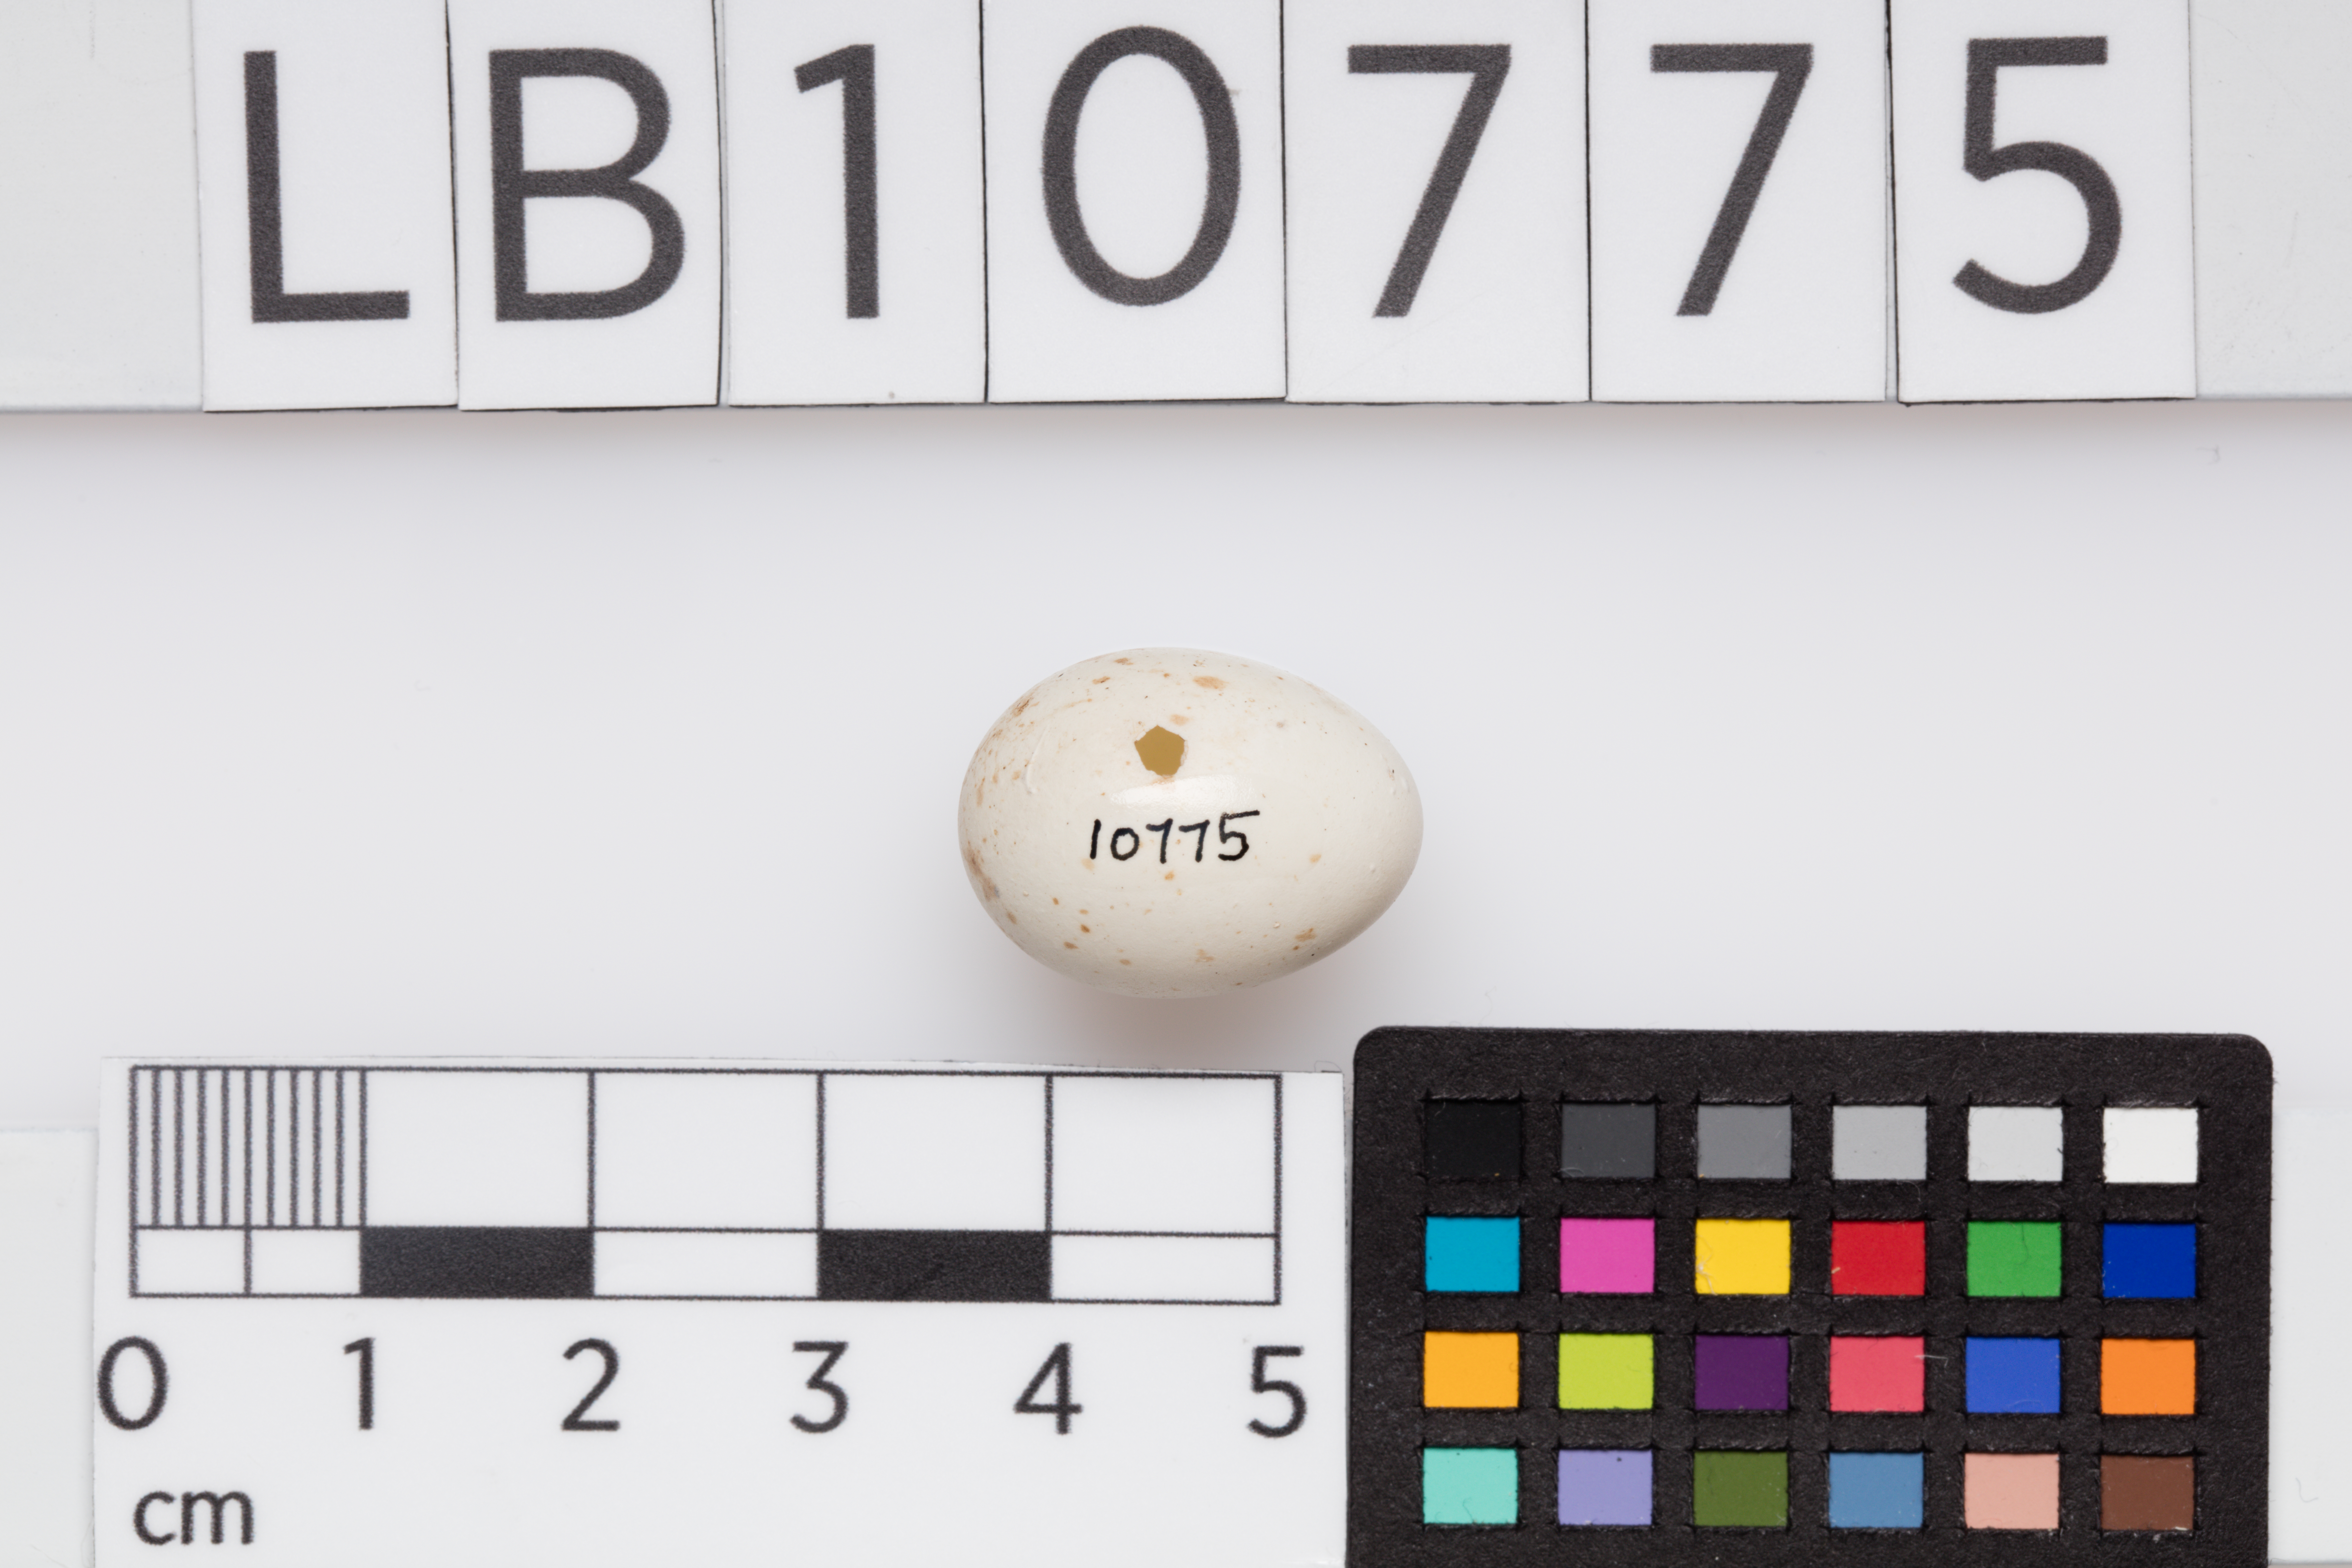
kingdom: Animalia
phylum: Chordata
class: Aves
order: Passeriformes
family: Muscicapidae
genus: Erithacus
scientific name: Erithacus rubecula
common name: European robin
